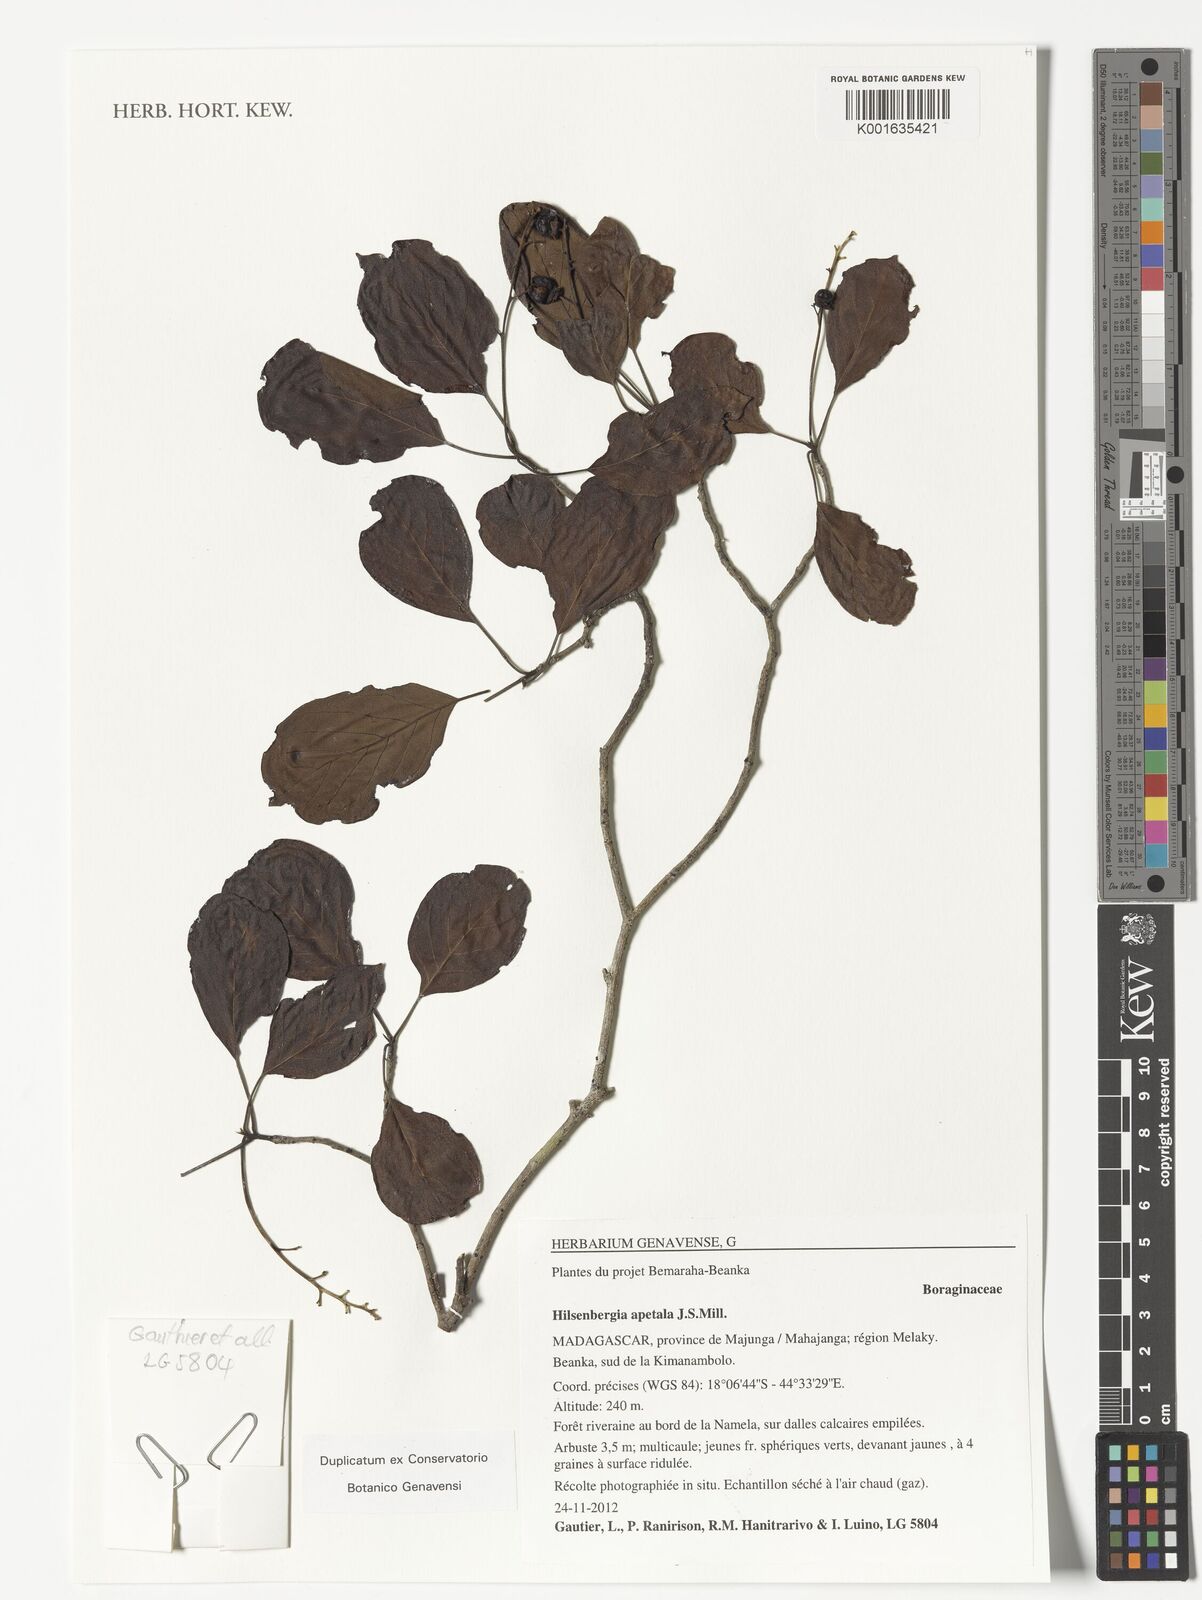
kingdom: Plantae
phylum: Tracheophyta
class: Magnoliopsida
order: Boraginales
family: Ehretiaceae
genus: Bourreria
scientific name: Bourreria apetala
